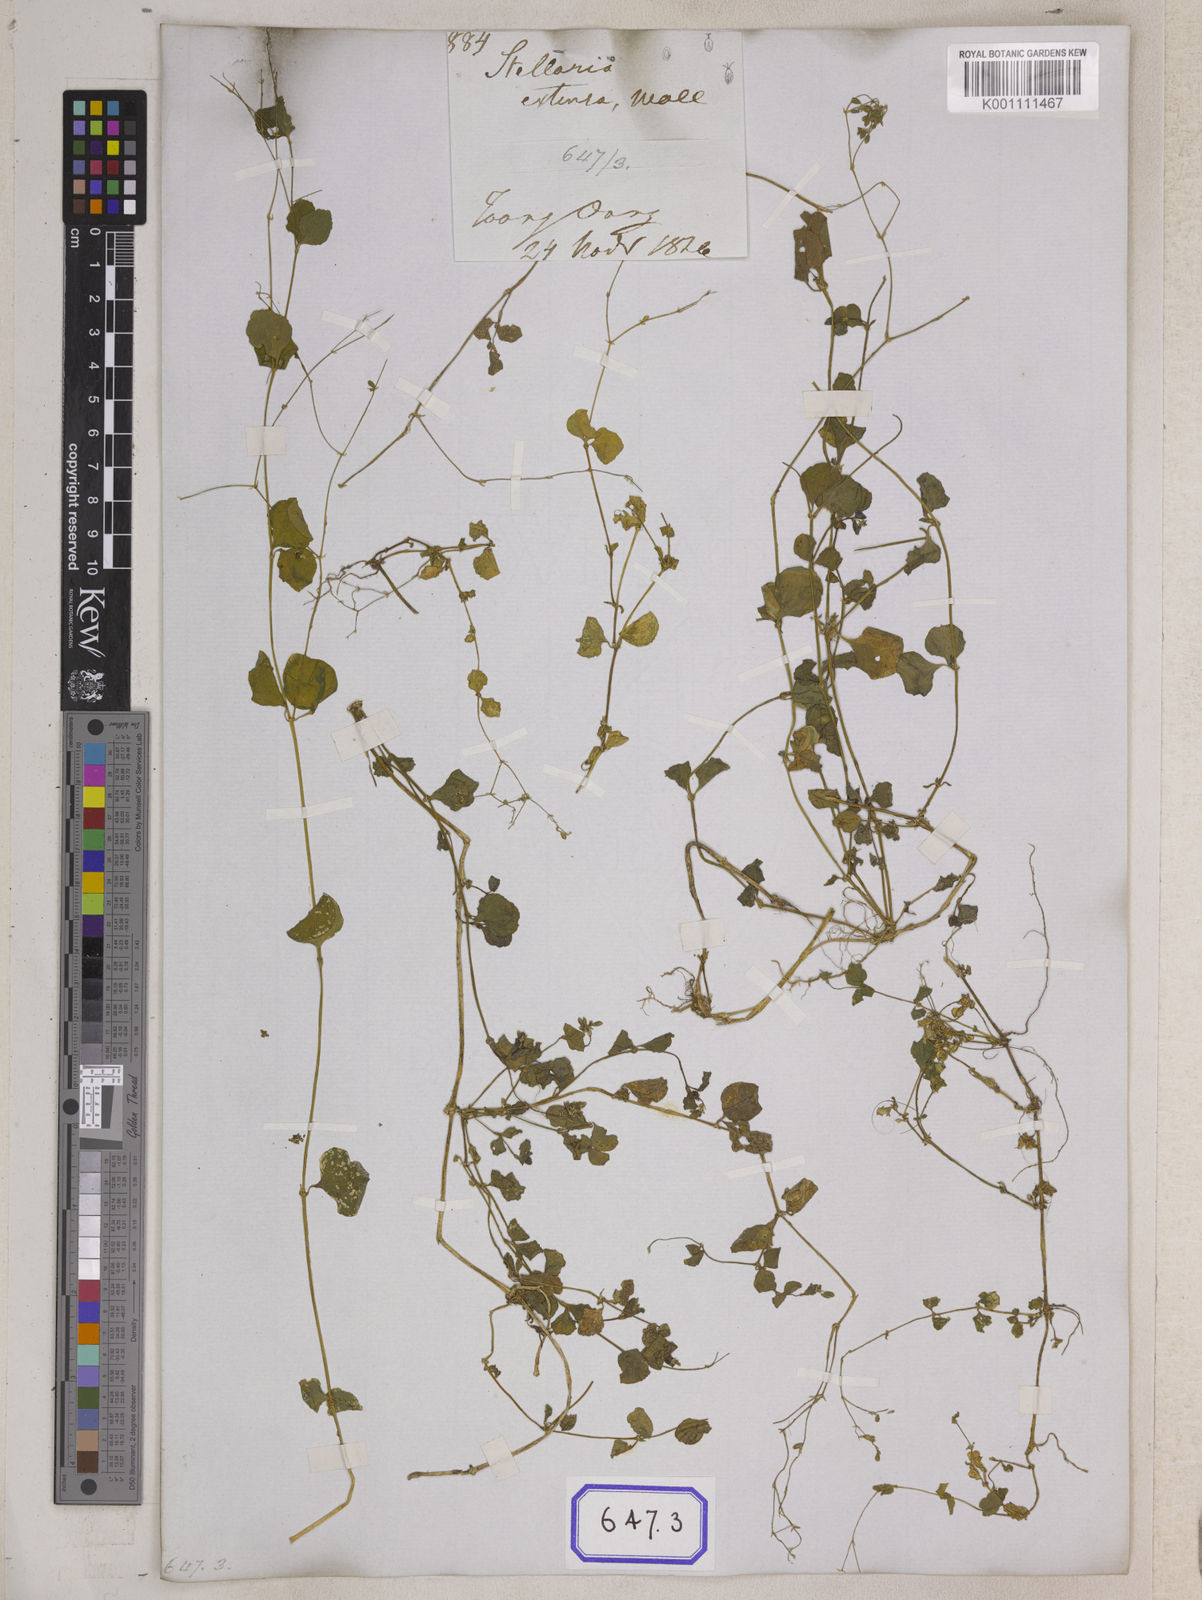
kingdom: Plantae
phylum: Tracheophyta
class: Magnoliopsida
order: Caryophyllales
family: Caryophyllaceae
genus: Drymaria
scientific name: Drymaria
